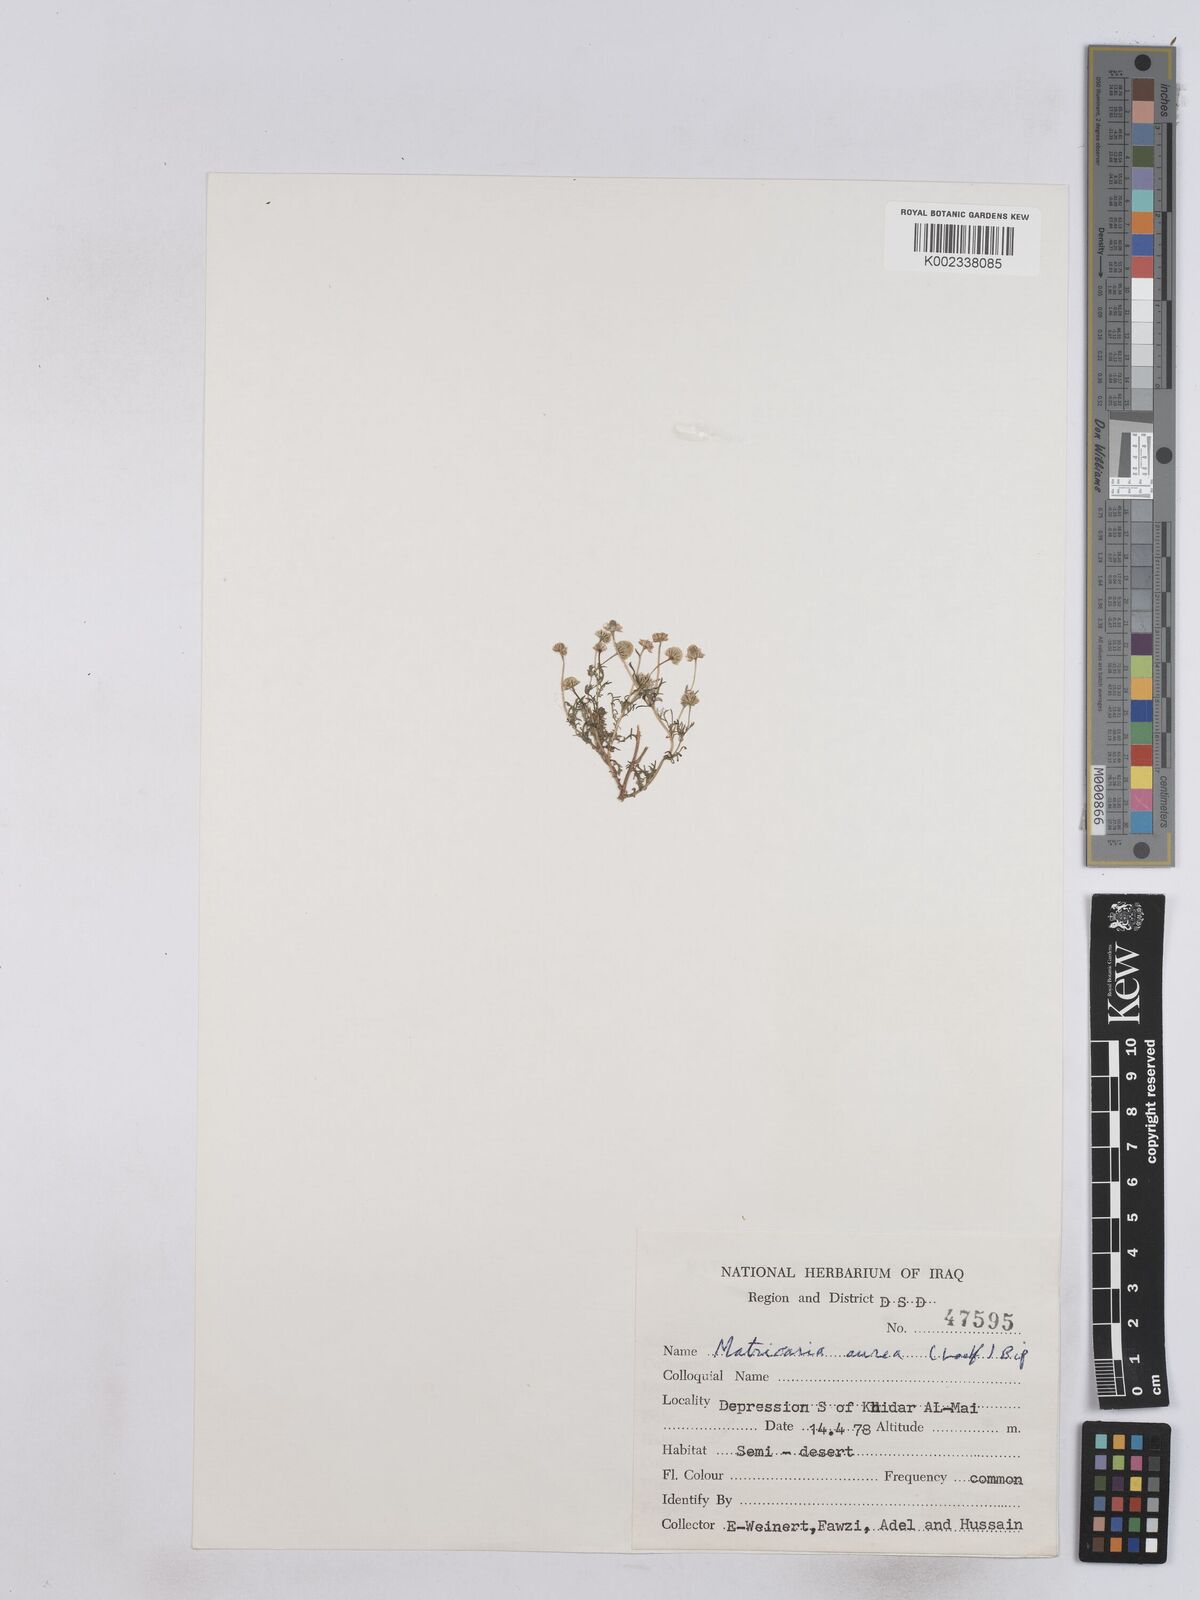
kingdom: Plantae
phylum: Tracheophyta
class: Magnoliopsida
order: Asterales
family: Asteraceae
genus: Matricaria
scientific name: Matricaria aurea
